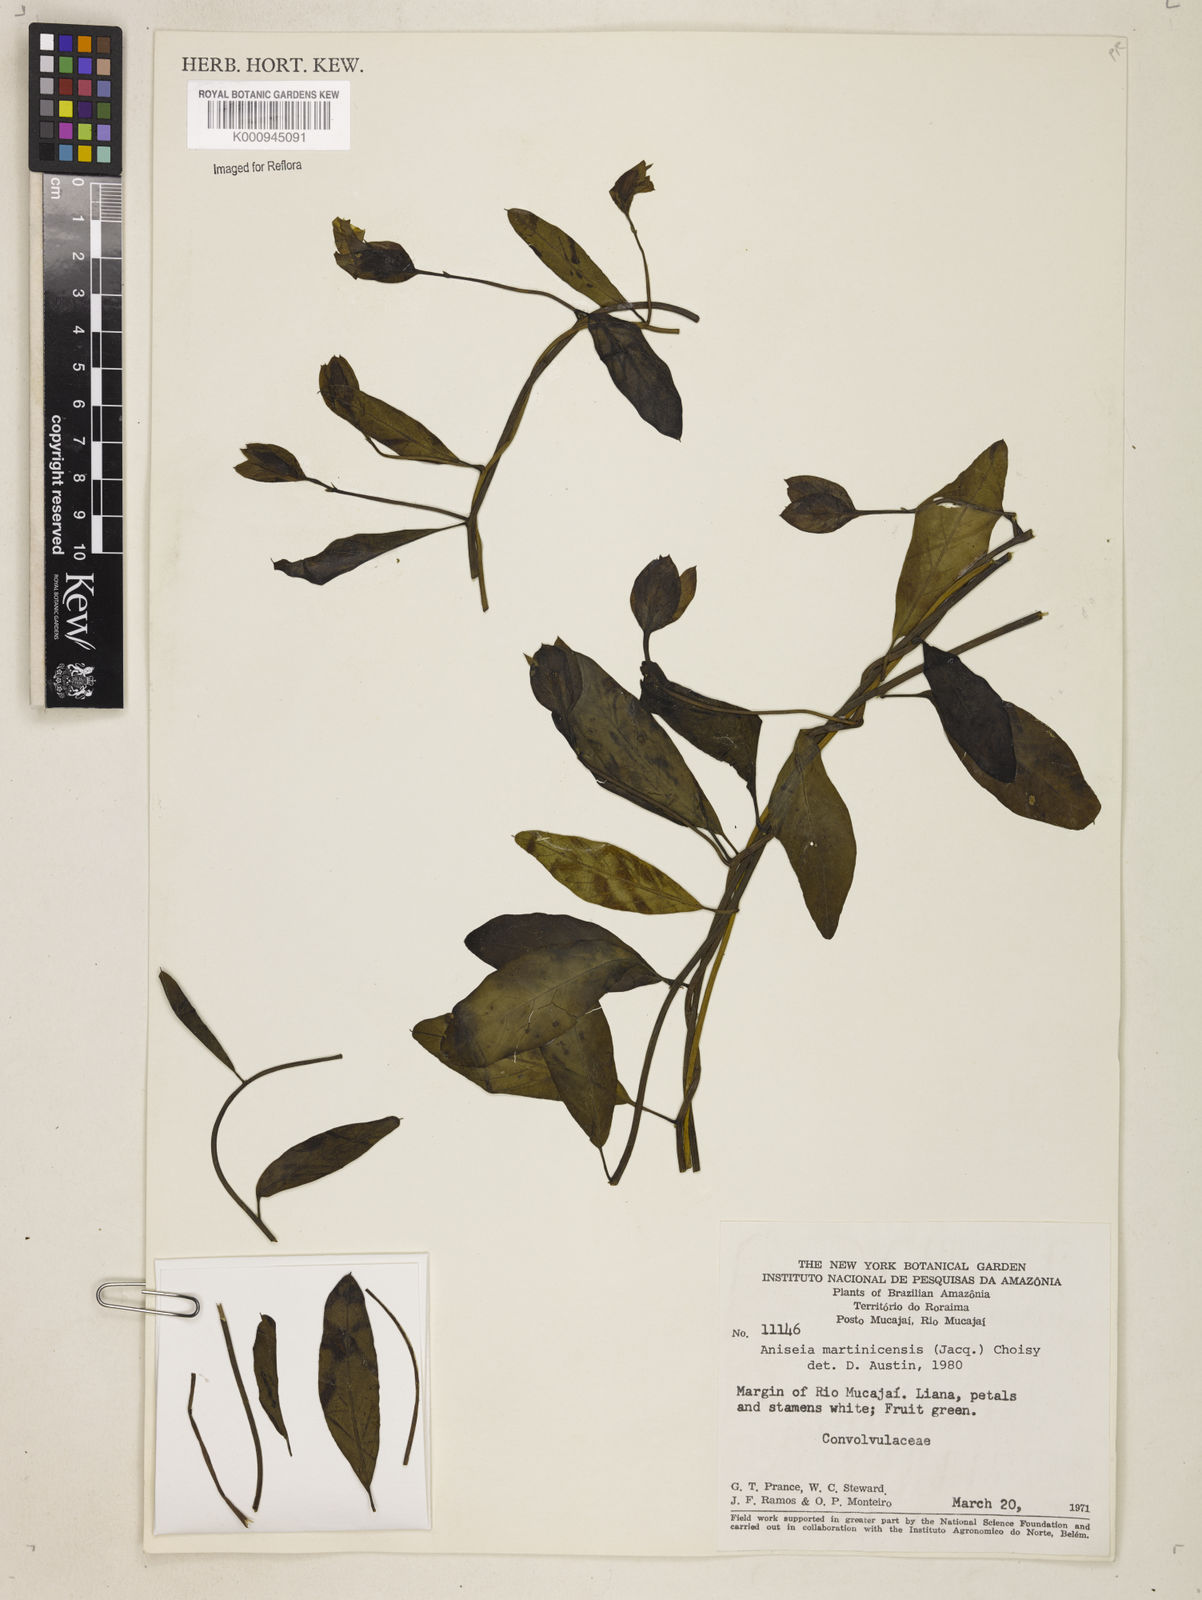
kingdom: Plantae
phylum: Tracheophyta
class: Magnoliopsida
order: Solanales
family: Convolvulaceae
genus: Aniseia
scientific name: Aniseia martinicensis
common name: Kulayadambu
